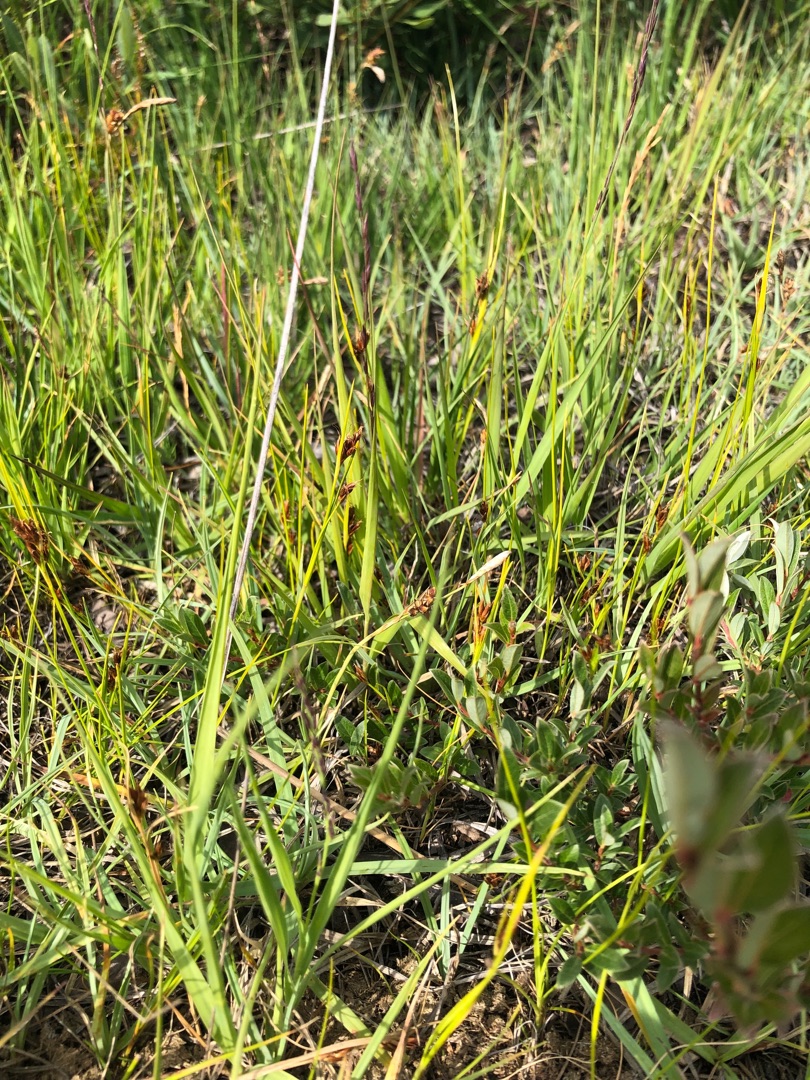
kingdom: Plantae
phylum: Tracheophyta
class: Liliopsida
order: Poales
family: Cyperaceae
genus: Rhynchospora
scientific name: Rhynchospora fusca
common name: Brun næbfrø
